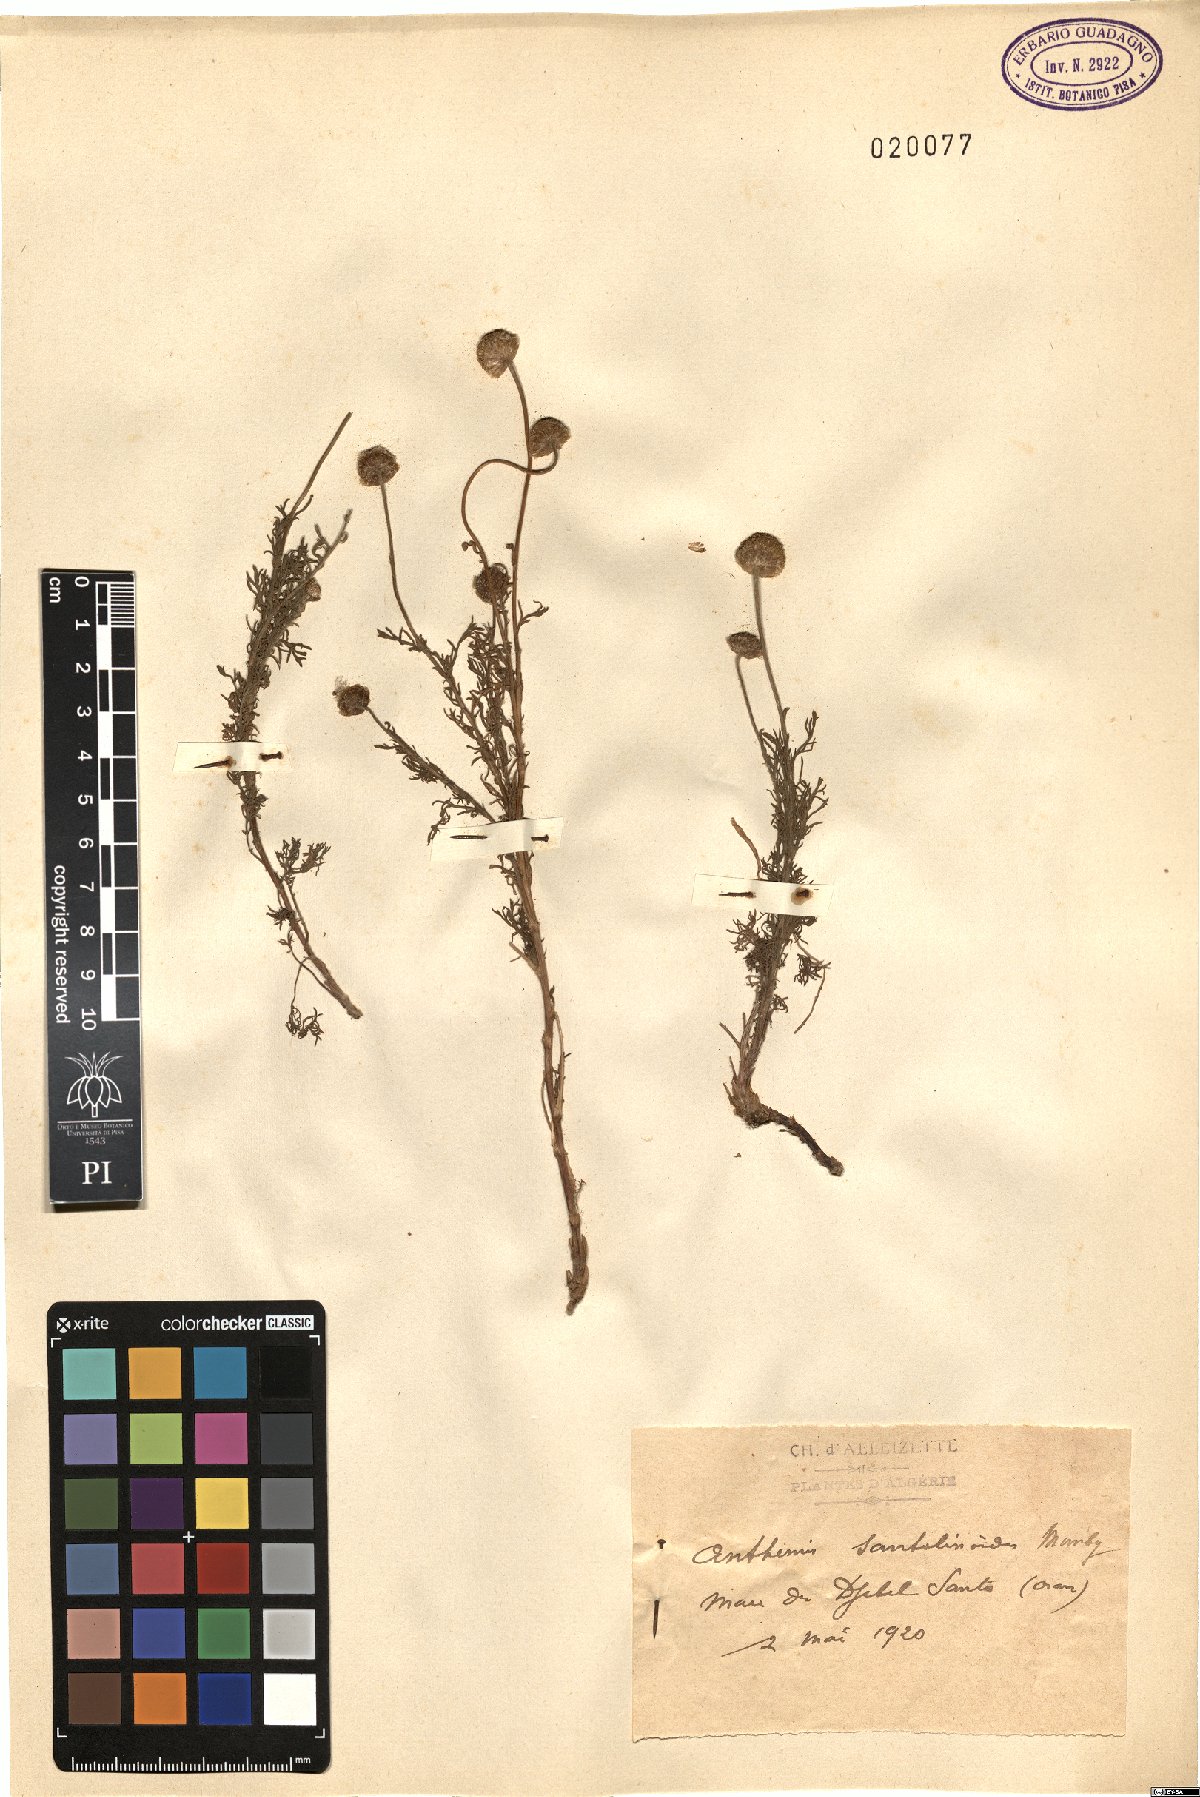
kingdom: Plantae
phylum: Tracheophyta
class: Magnoliopsida
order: Asterales
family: Asteraceae
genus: Chamaemelum
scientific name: Chamaemelum nobile
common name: Roman chamomile
